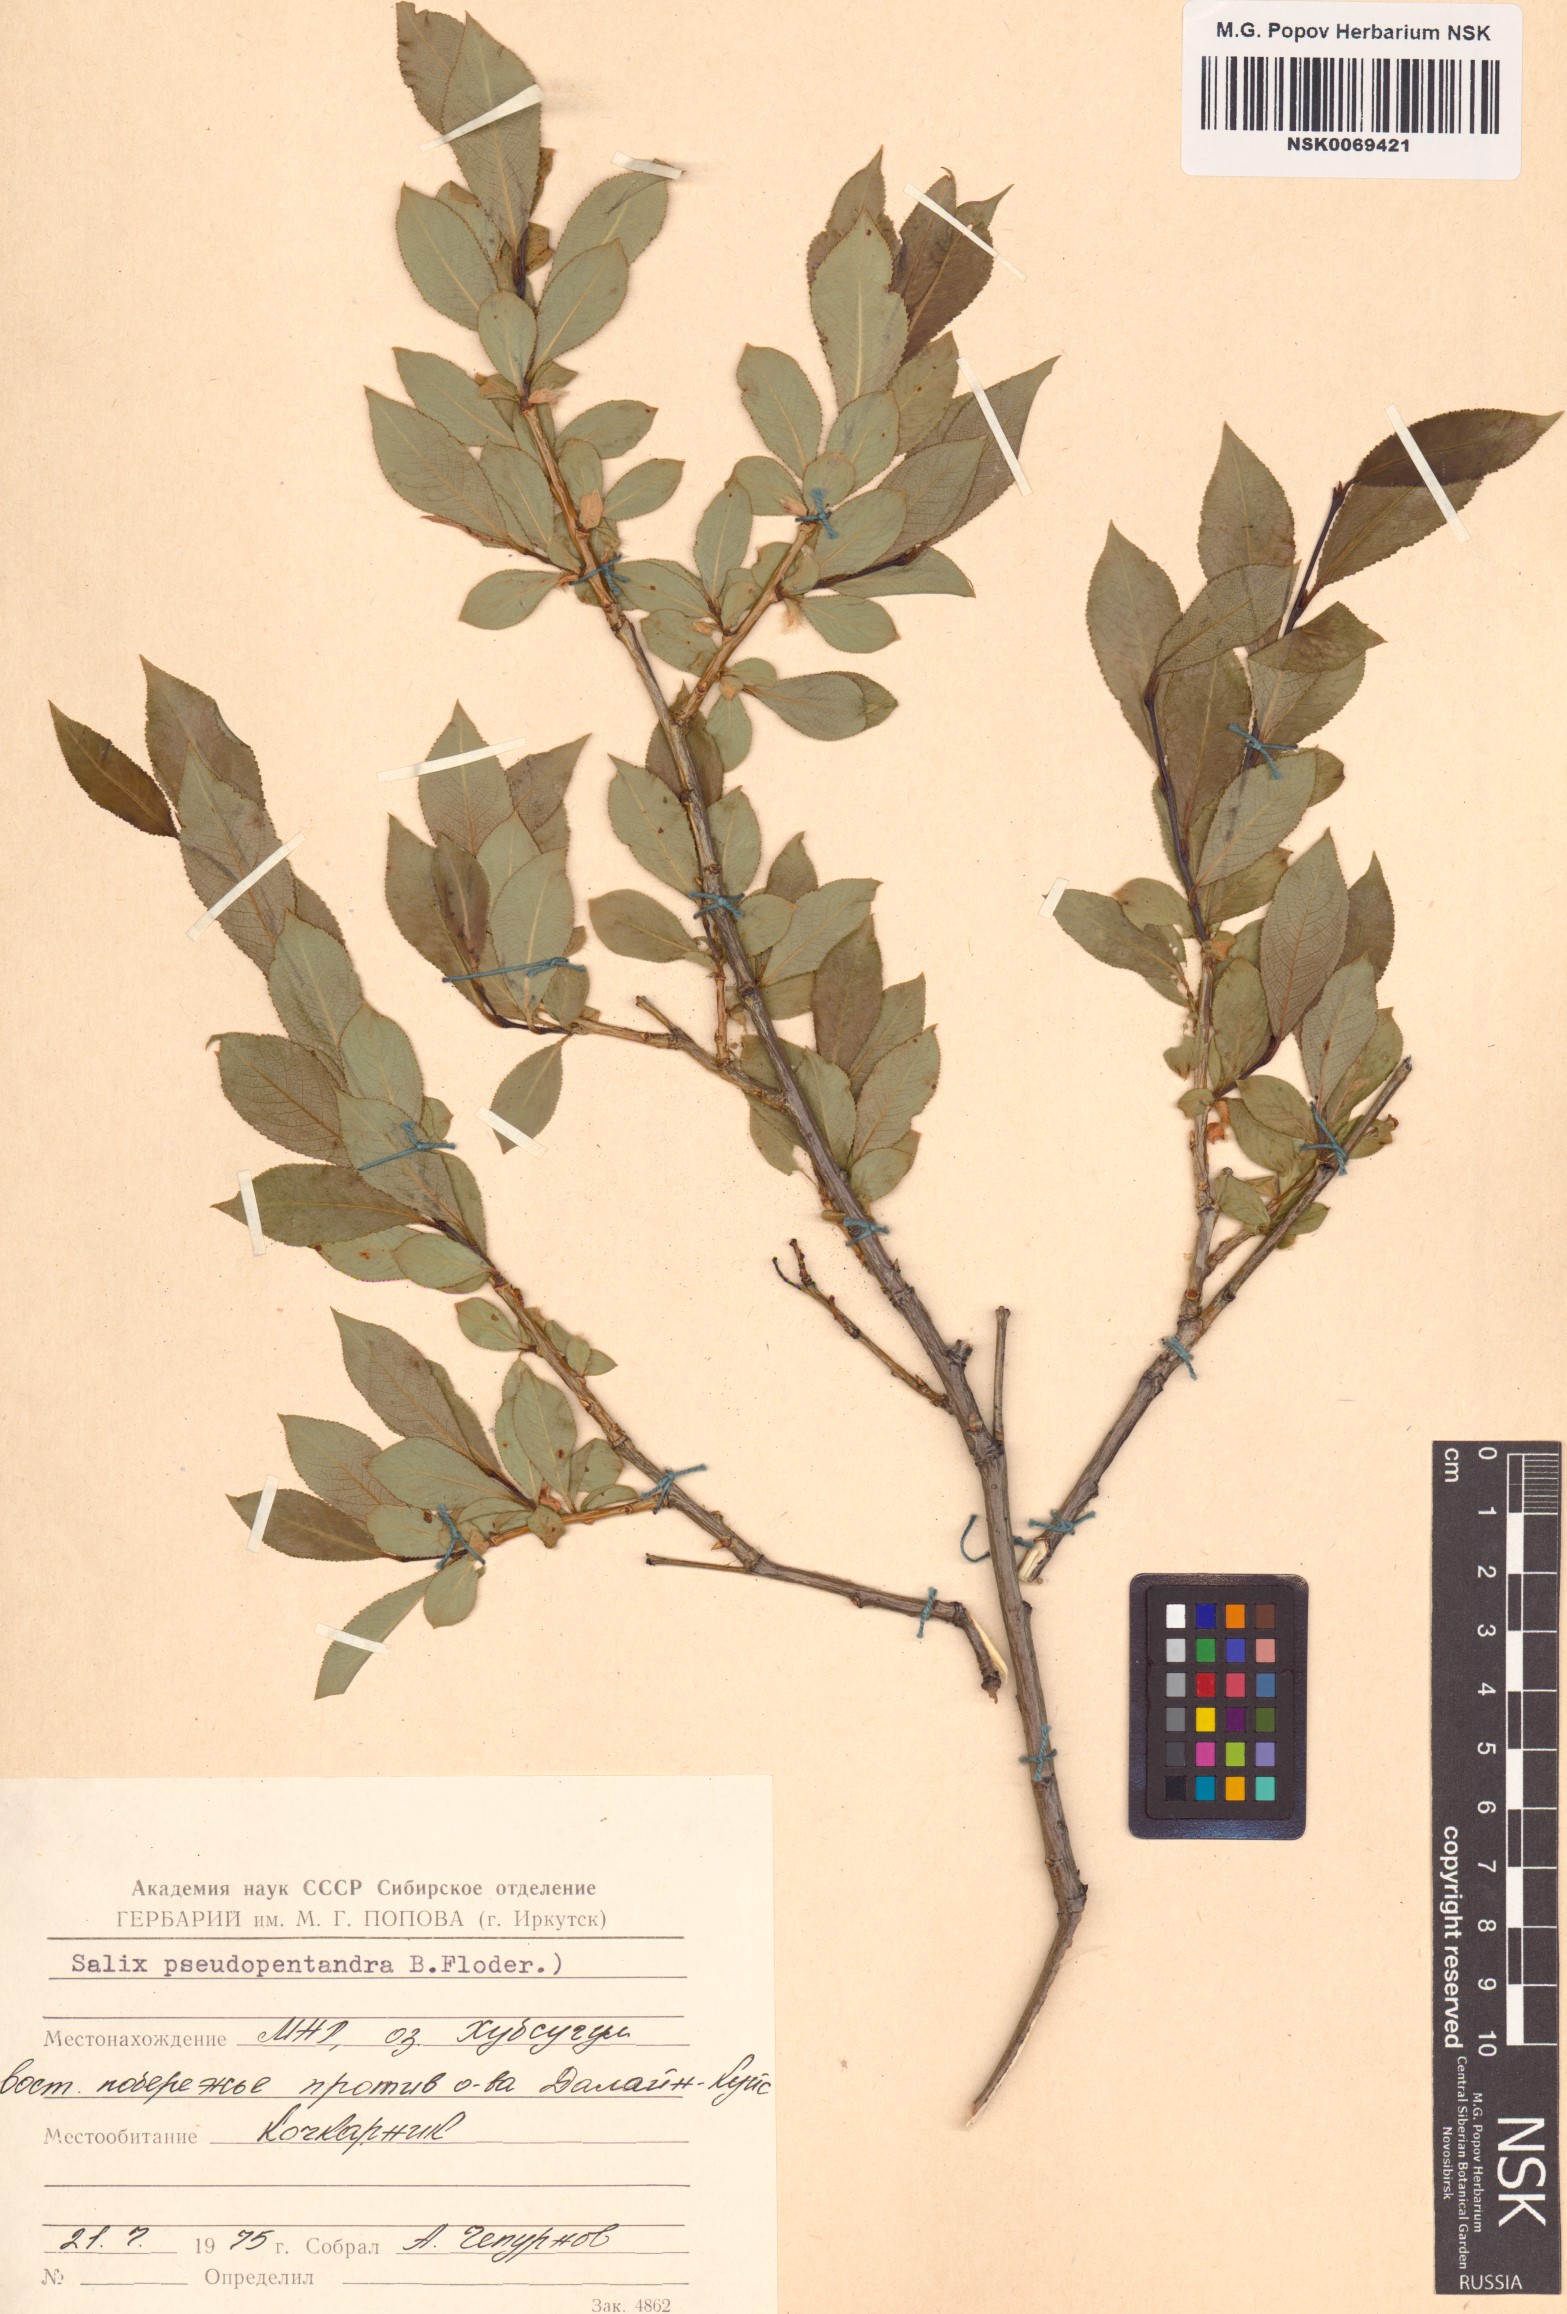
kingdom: Plantae
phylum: Tracheophyta
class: Magnoliopsida
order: Malpighiales
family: Salicaceae
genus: Salix
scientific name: Salix pseudopentandra
